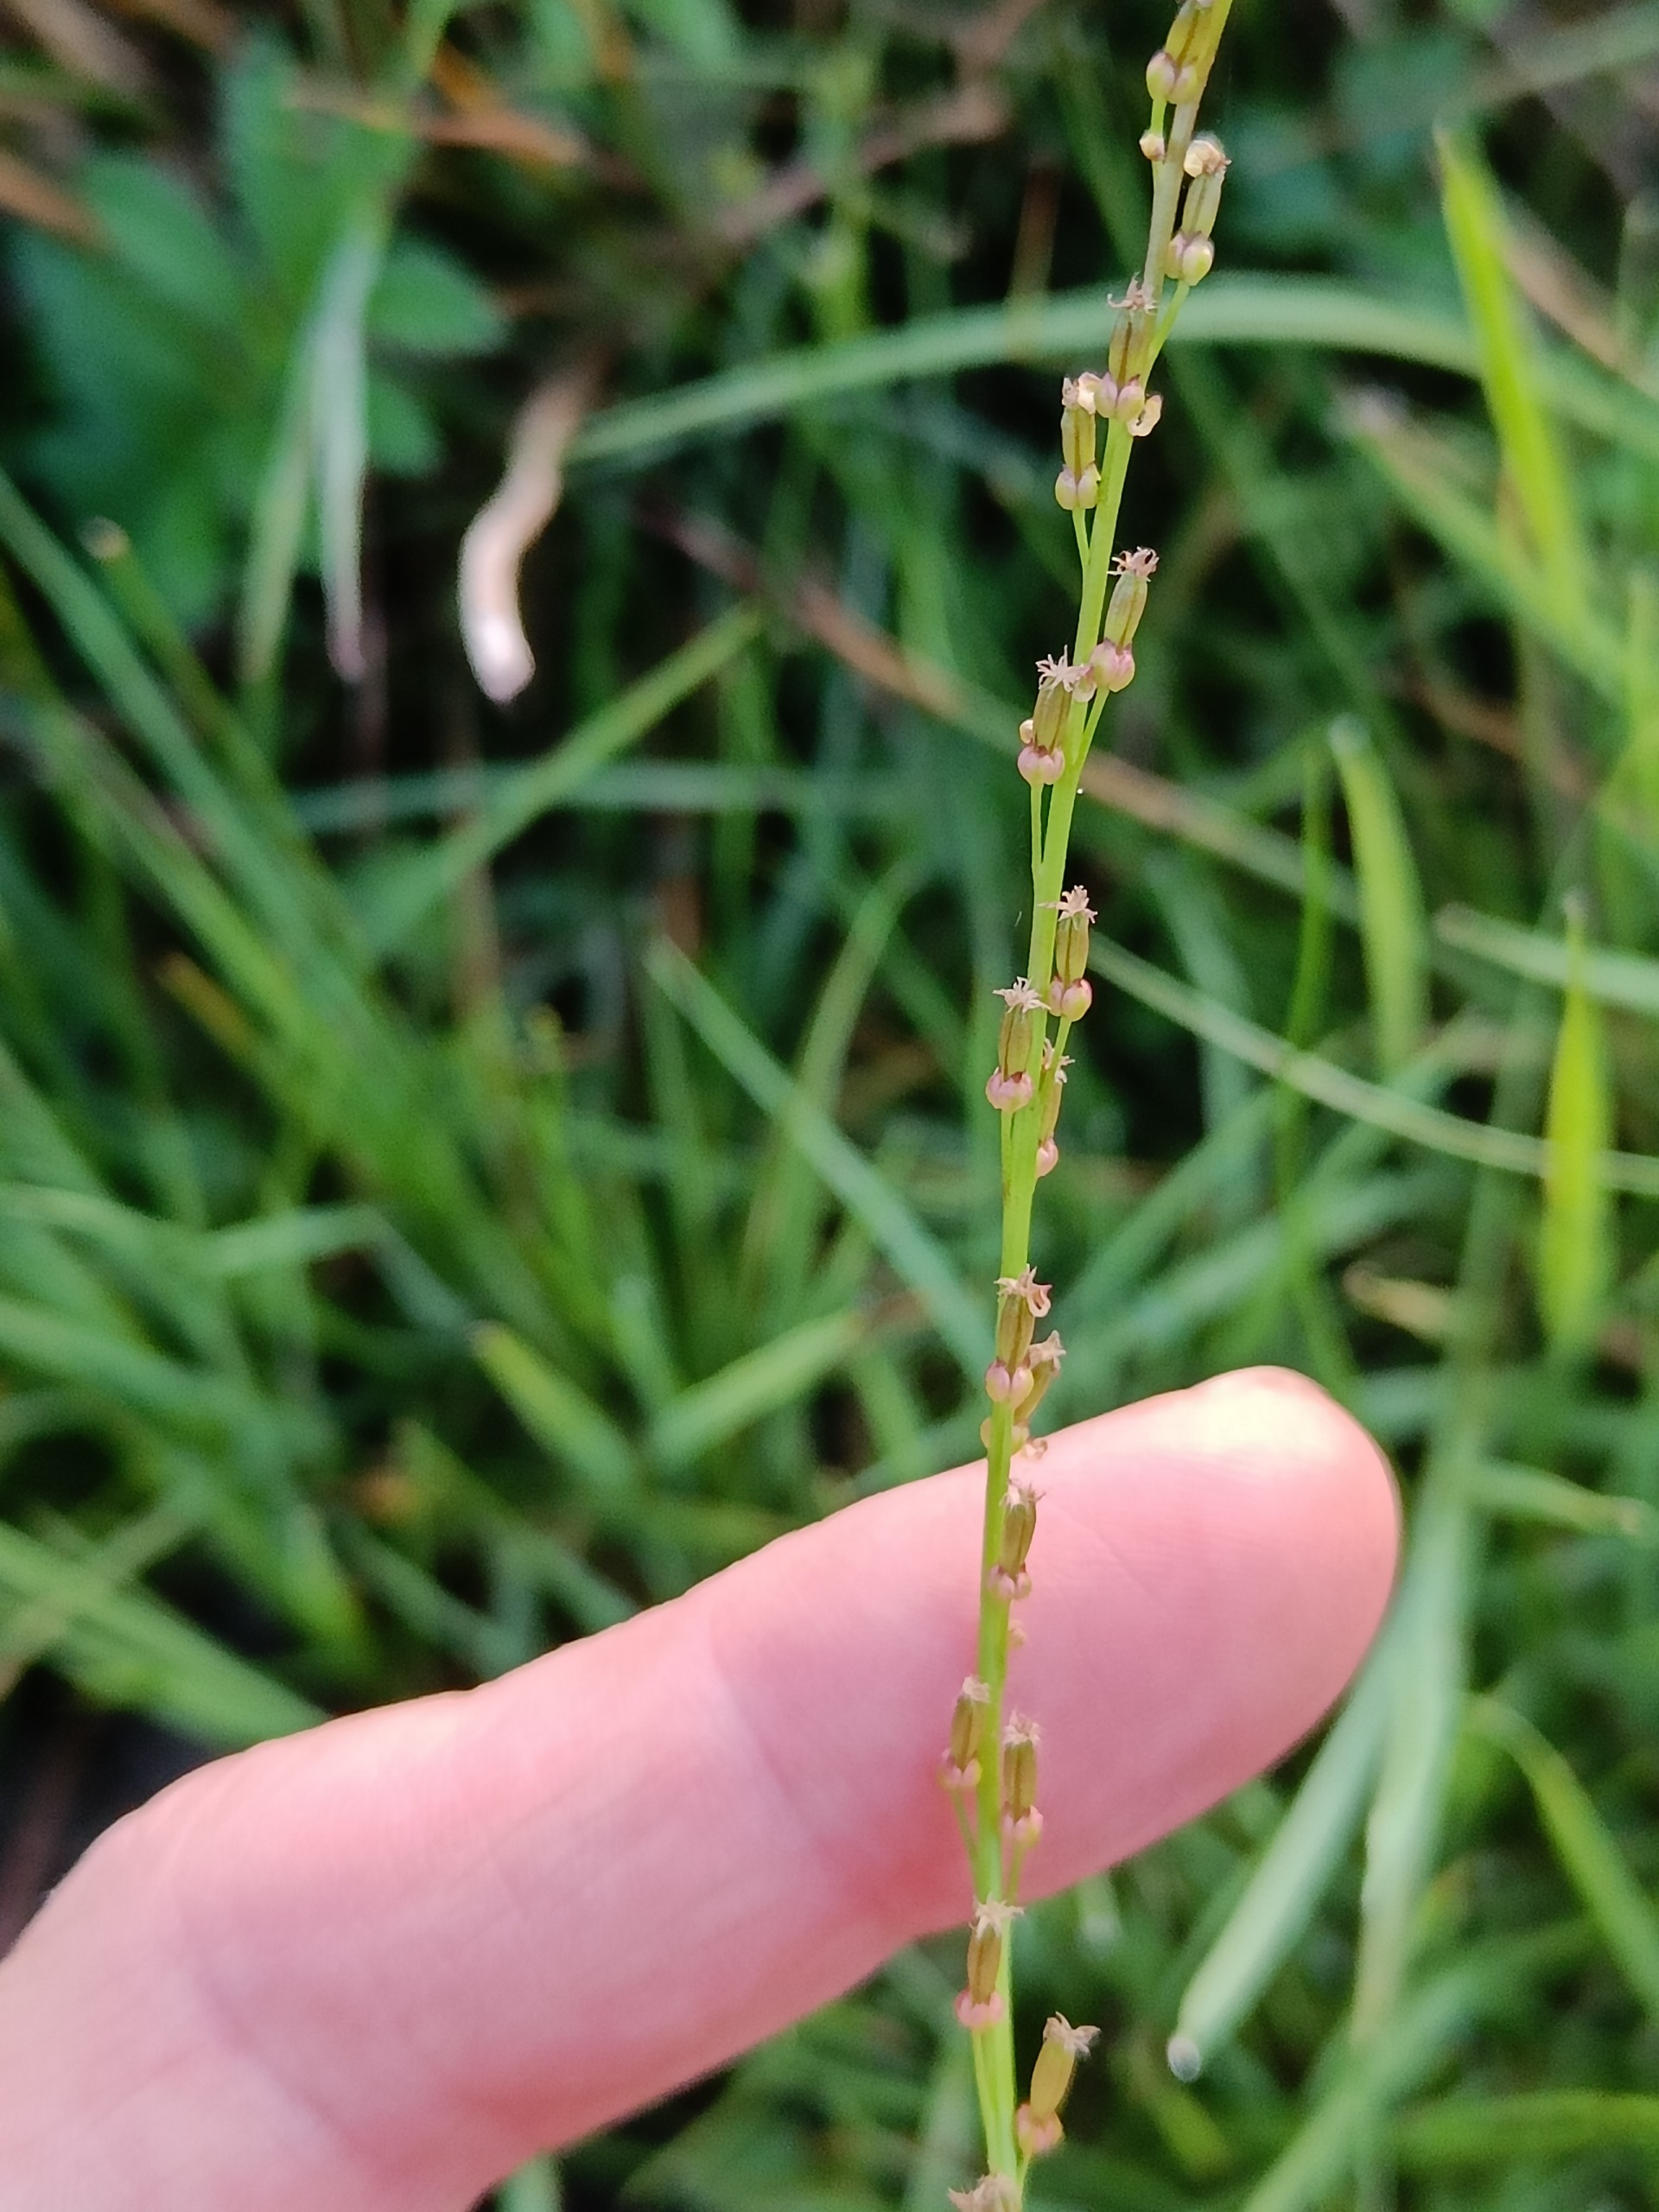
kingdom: Plantae
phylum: Tracheophyta
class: Liliopsida
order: Alismatales
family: Juncaginaceae
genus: Triglochin
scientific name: Triglochin palustris
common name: Kær-trehage
